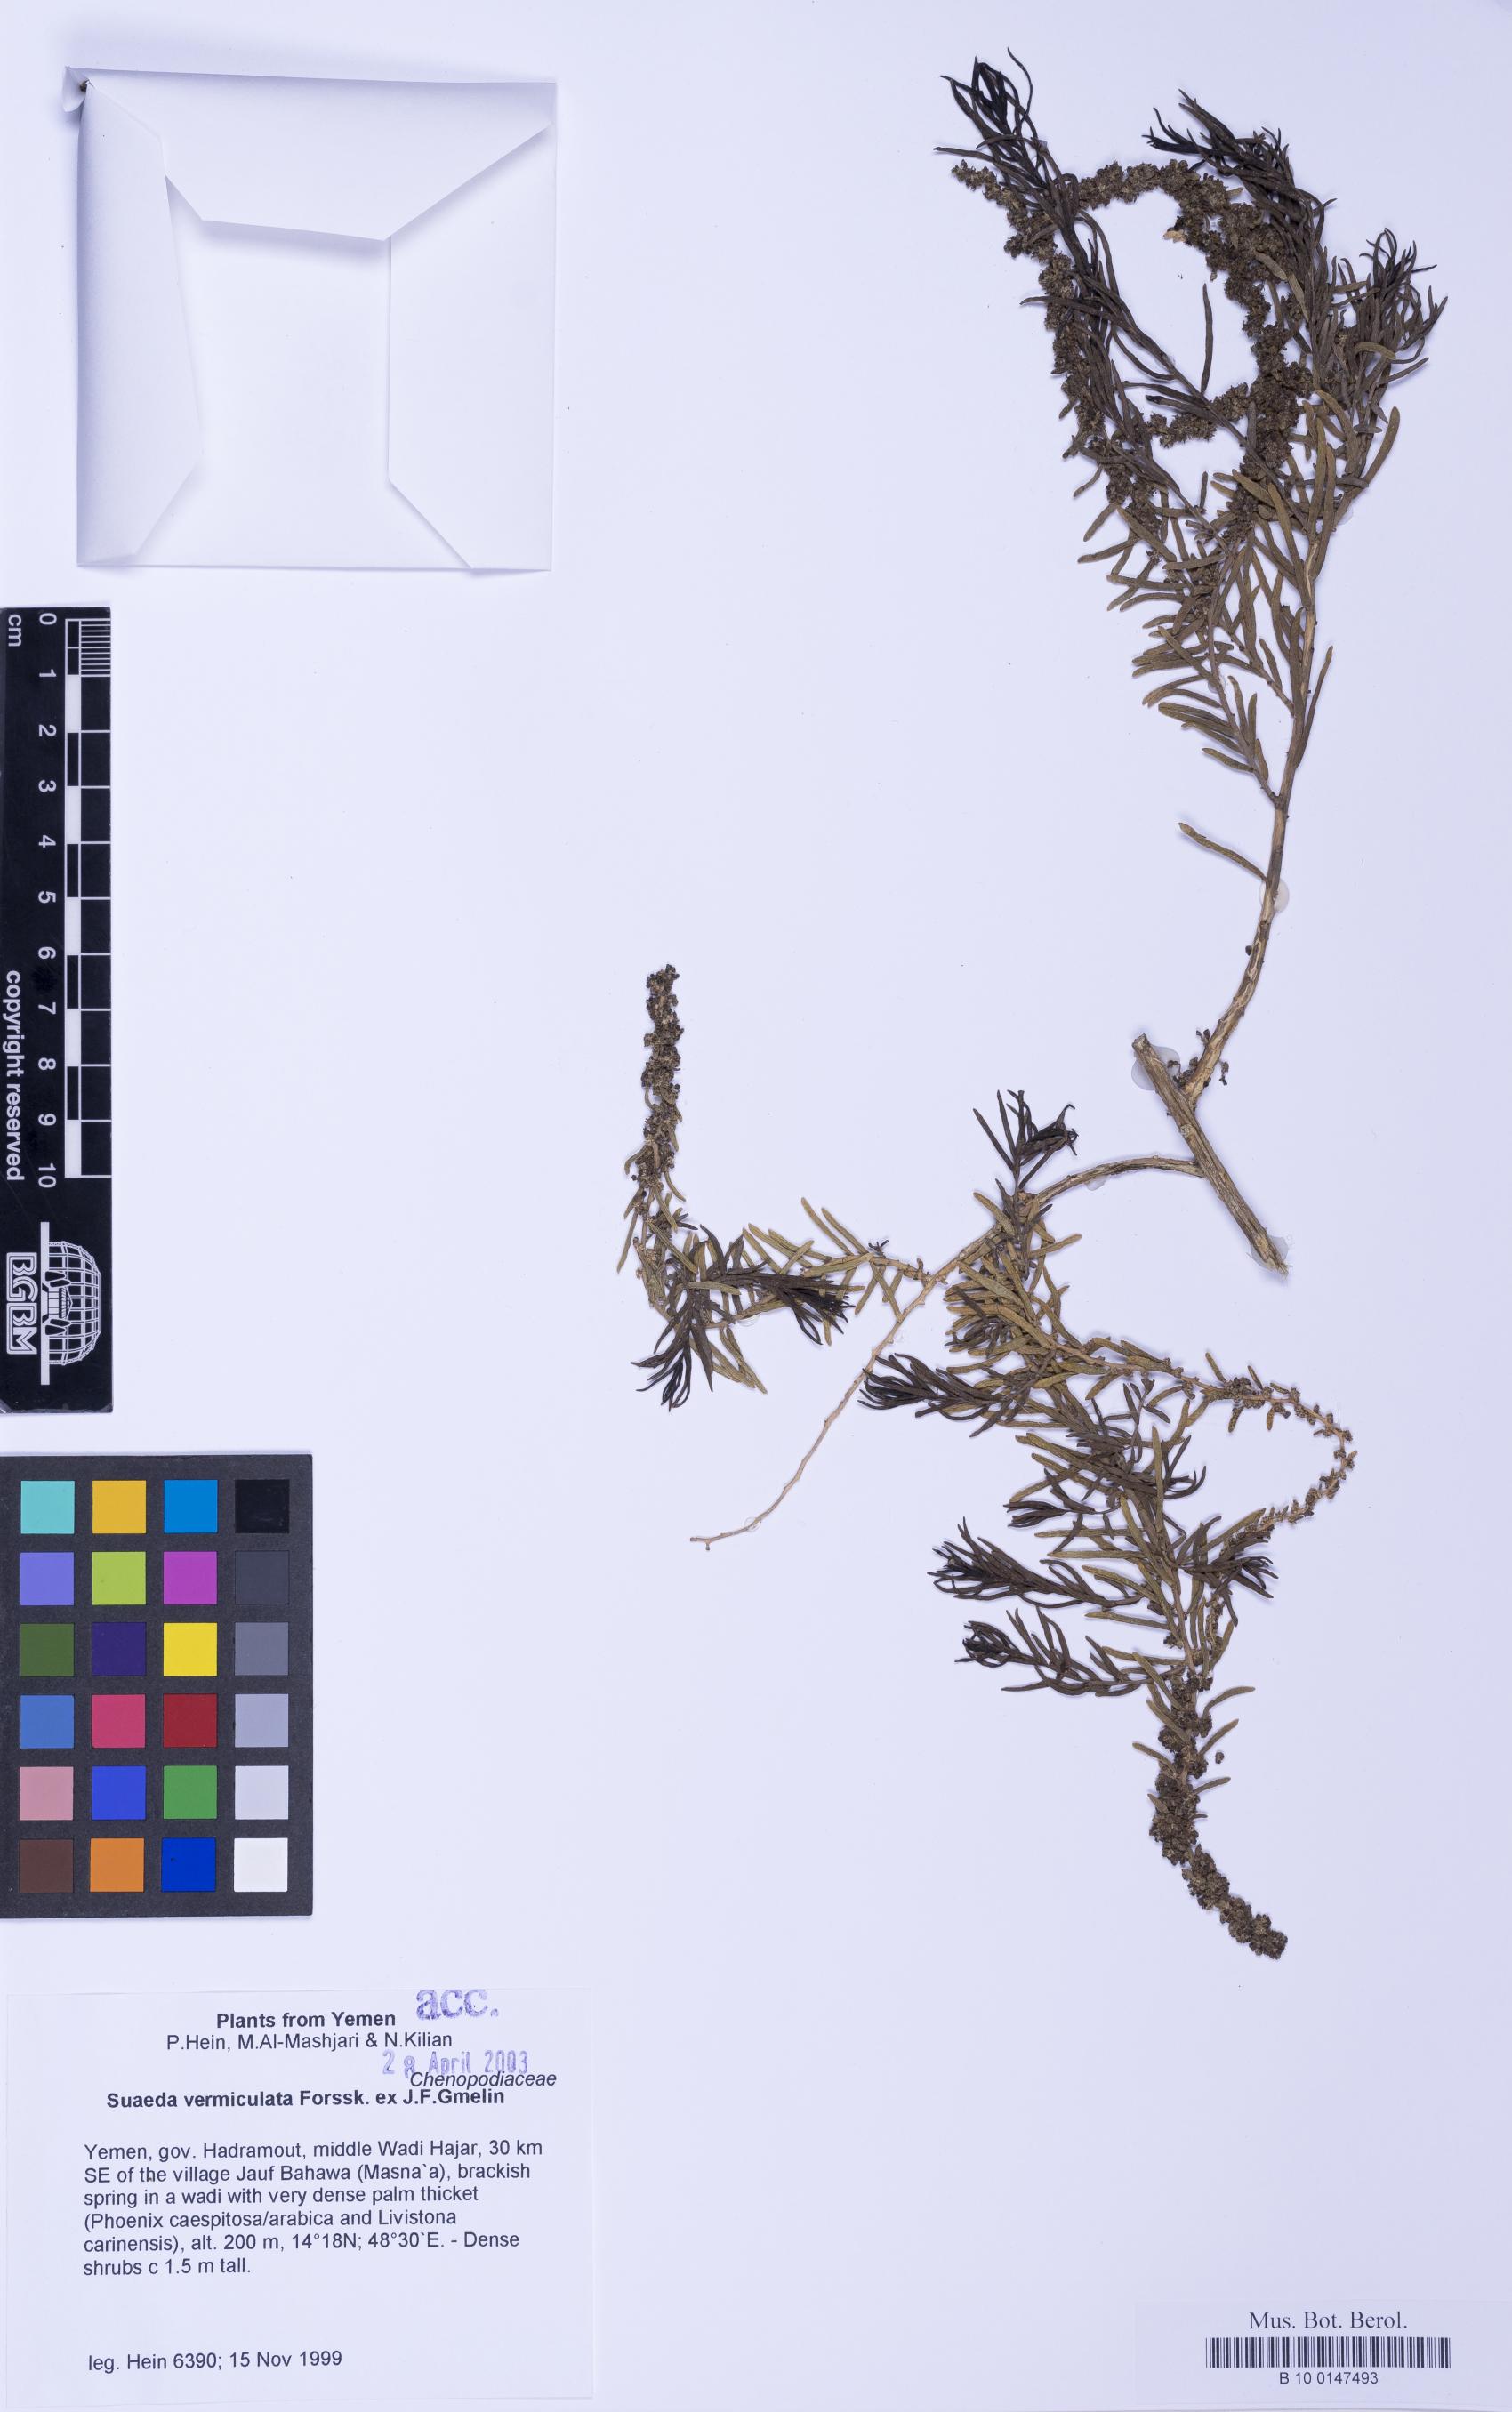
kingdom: Plantae
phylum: Tracheophyta
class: Magnoliopsida
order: Caryophyllales
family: Amaranthaceae
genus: Suaeda
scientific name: Suaeda vermiculata
